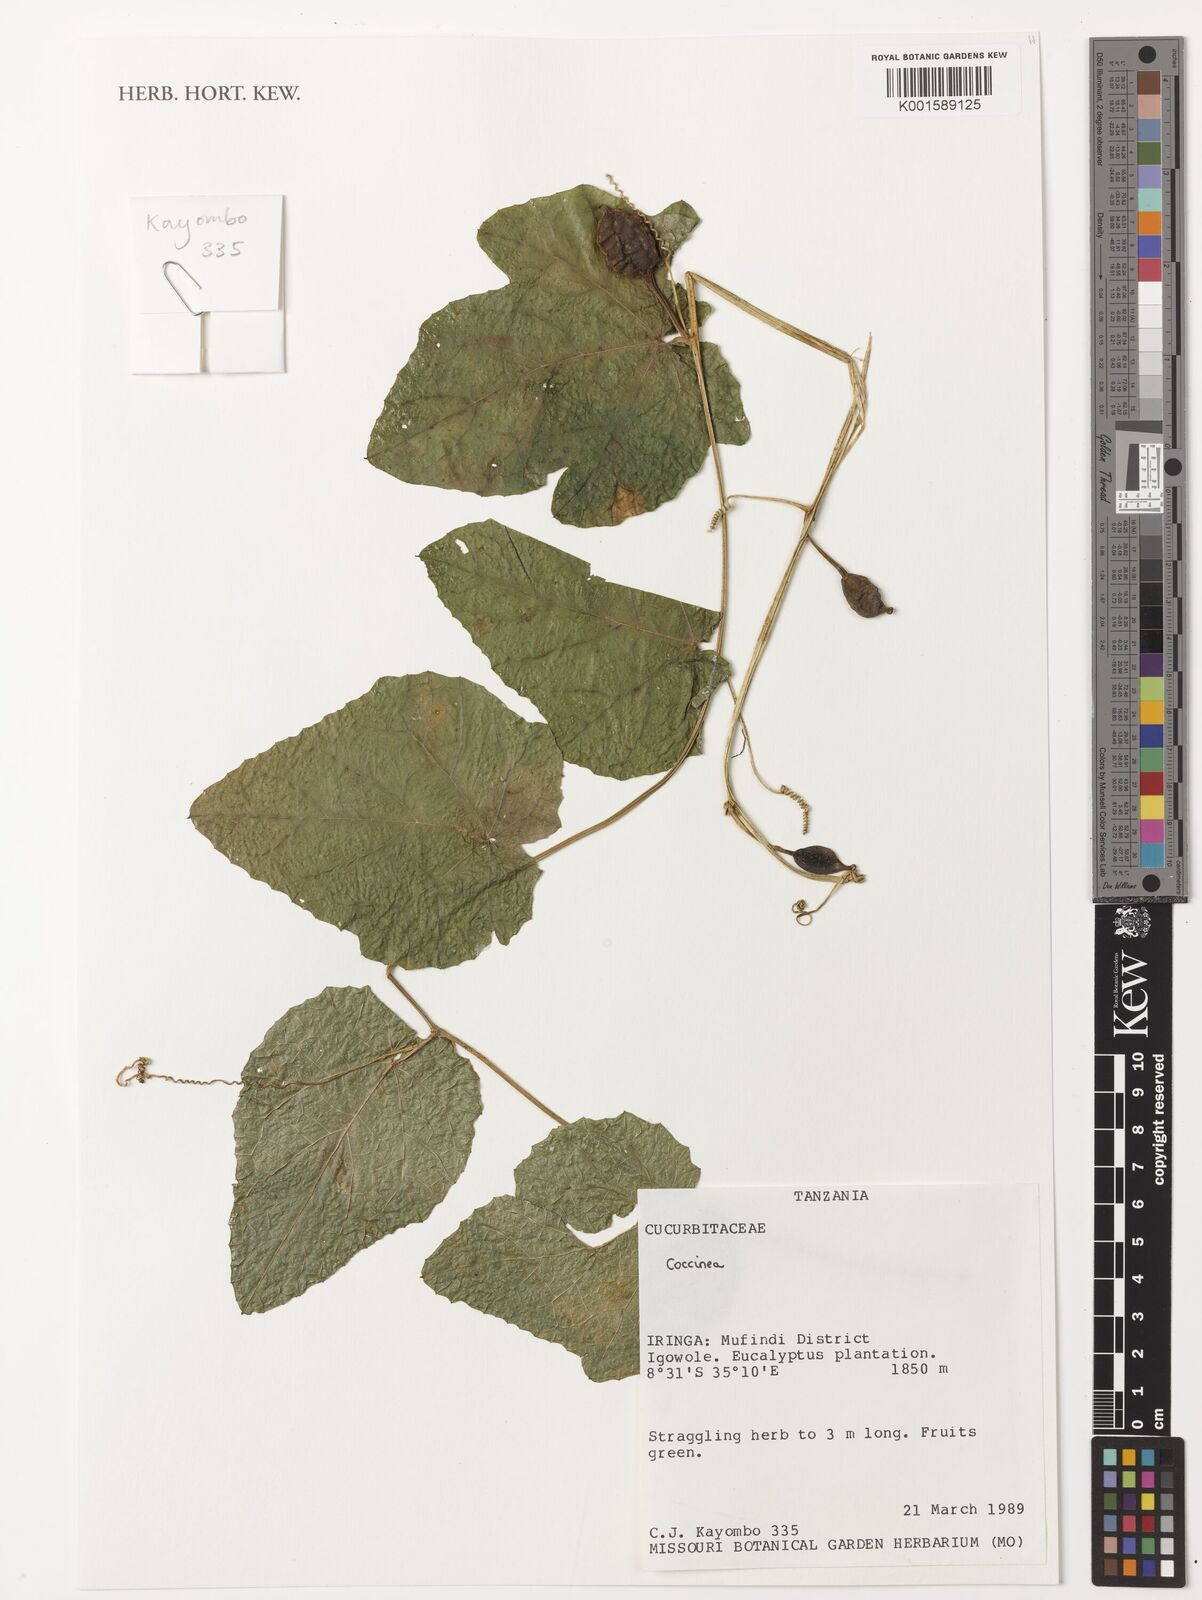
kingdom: Plantae
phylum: Tracheophyta
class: Magnoliopsida
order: Cucurbitales
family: Cucurbitaceae
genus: Coccinia
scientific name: Coccinia
